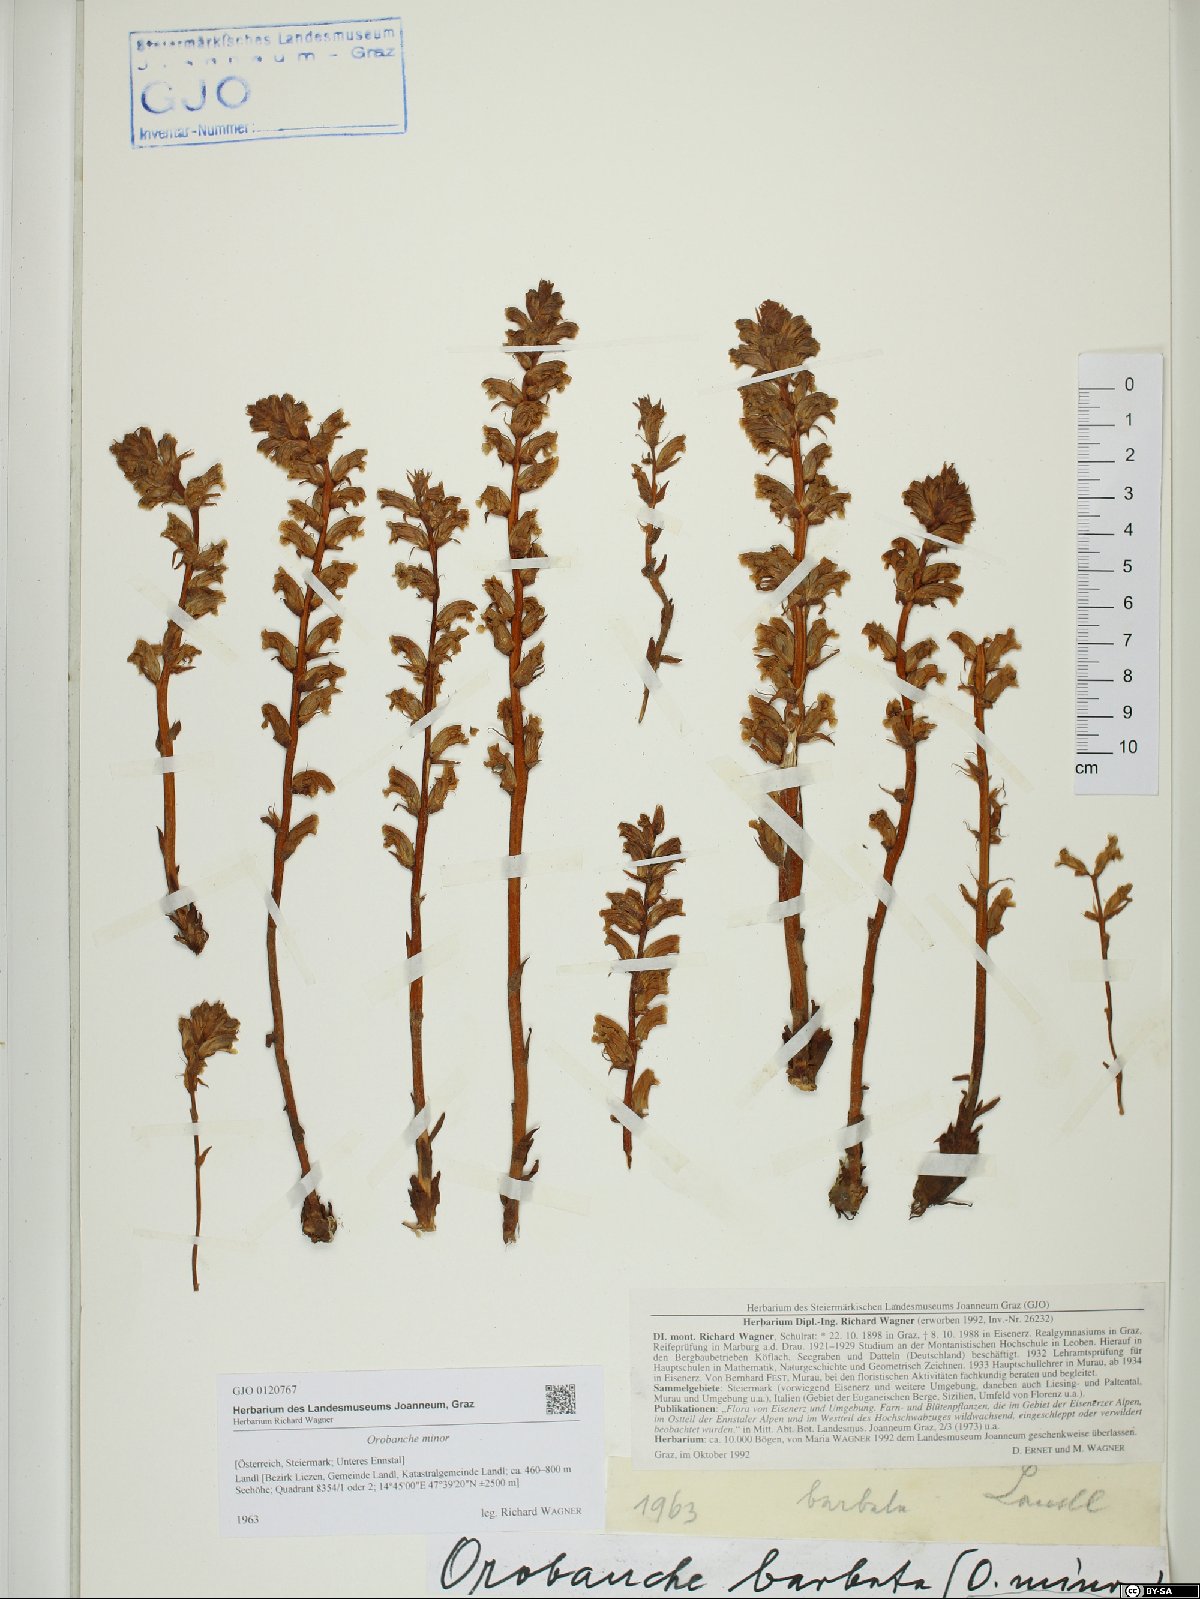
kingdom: Plantae
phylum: Tracheophyta
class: Magnoliopsida
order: Lamiales
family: Orobanchaceae
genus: Orobanche
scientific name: Orobanche minor
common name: Common broomrape
